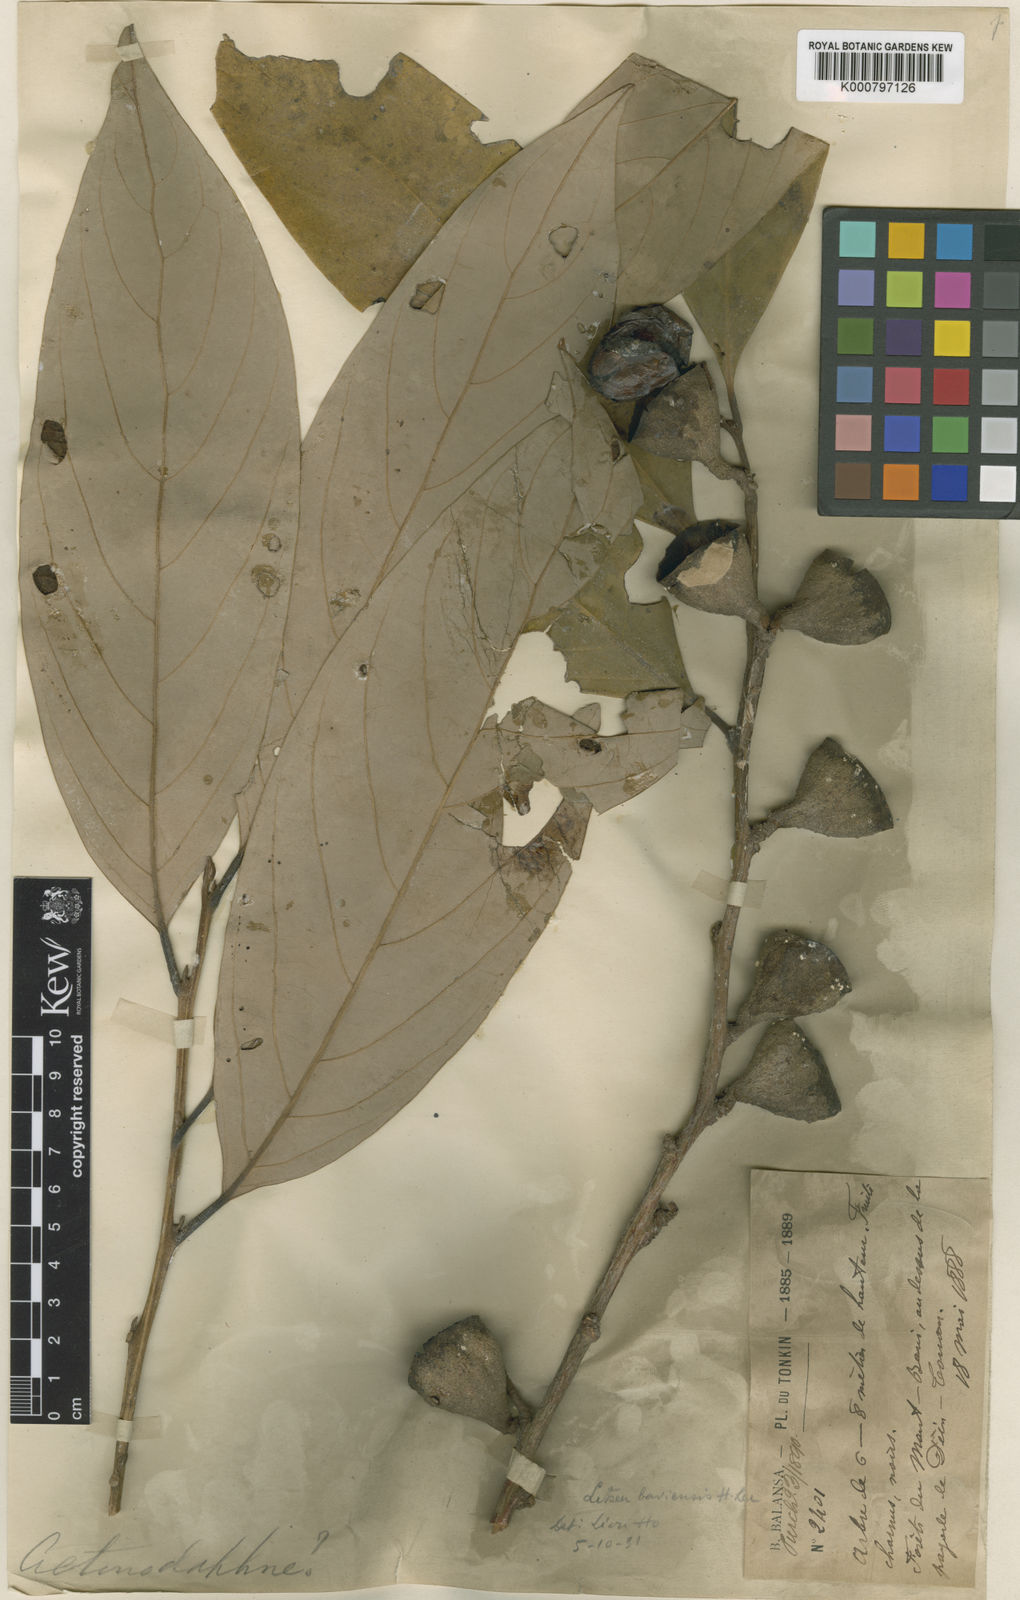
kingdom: Plantae
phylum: Tracheophyta
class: Magnoliopsida
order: Laurales
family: Lauraceae
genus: Litsea
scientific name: Litsea baviensis
